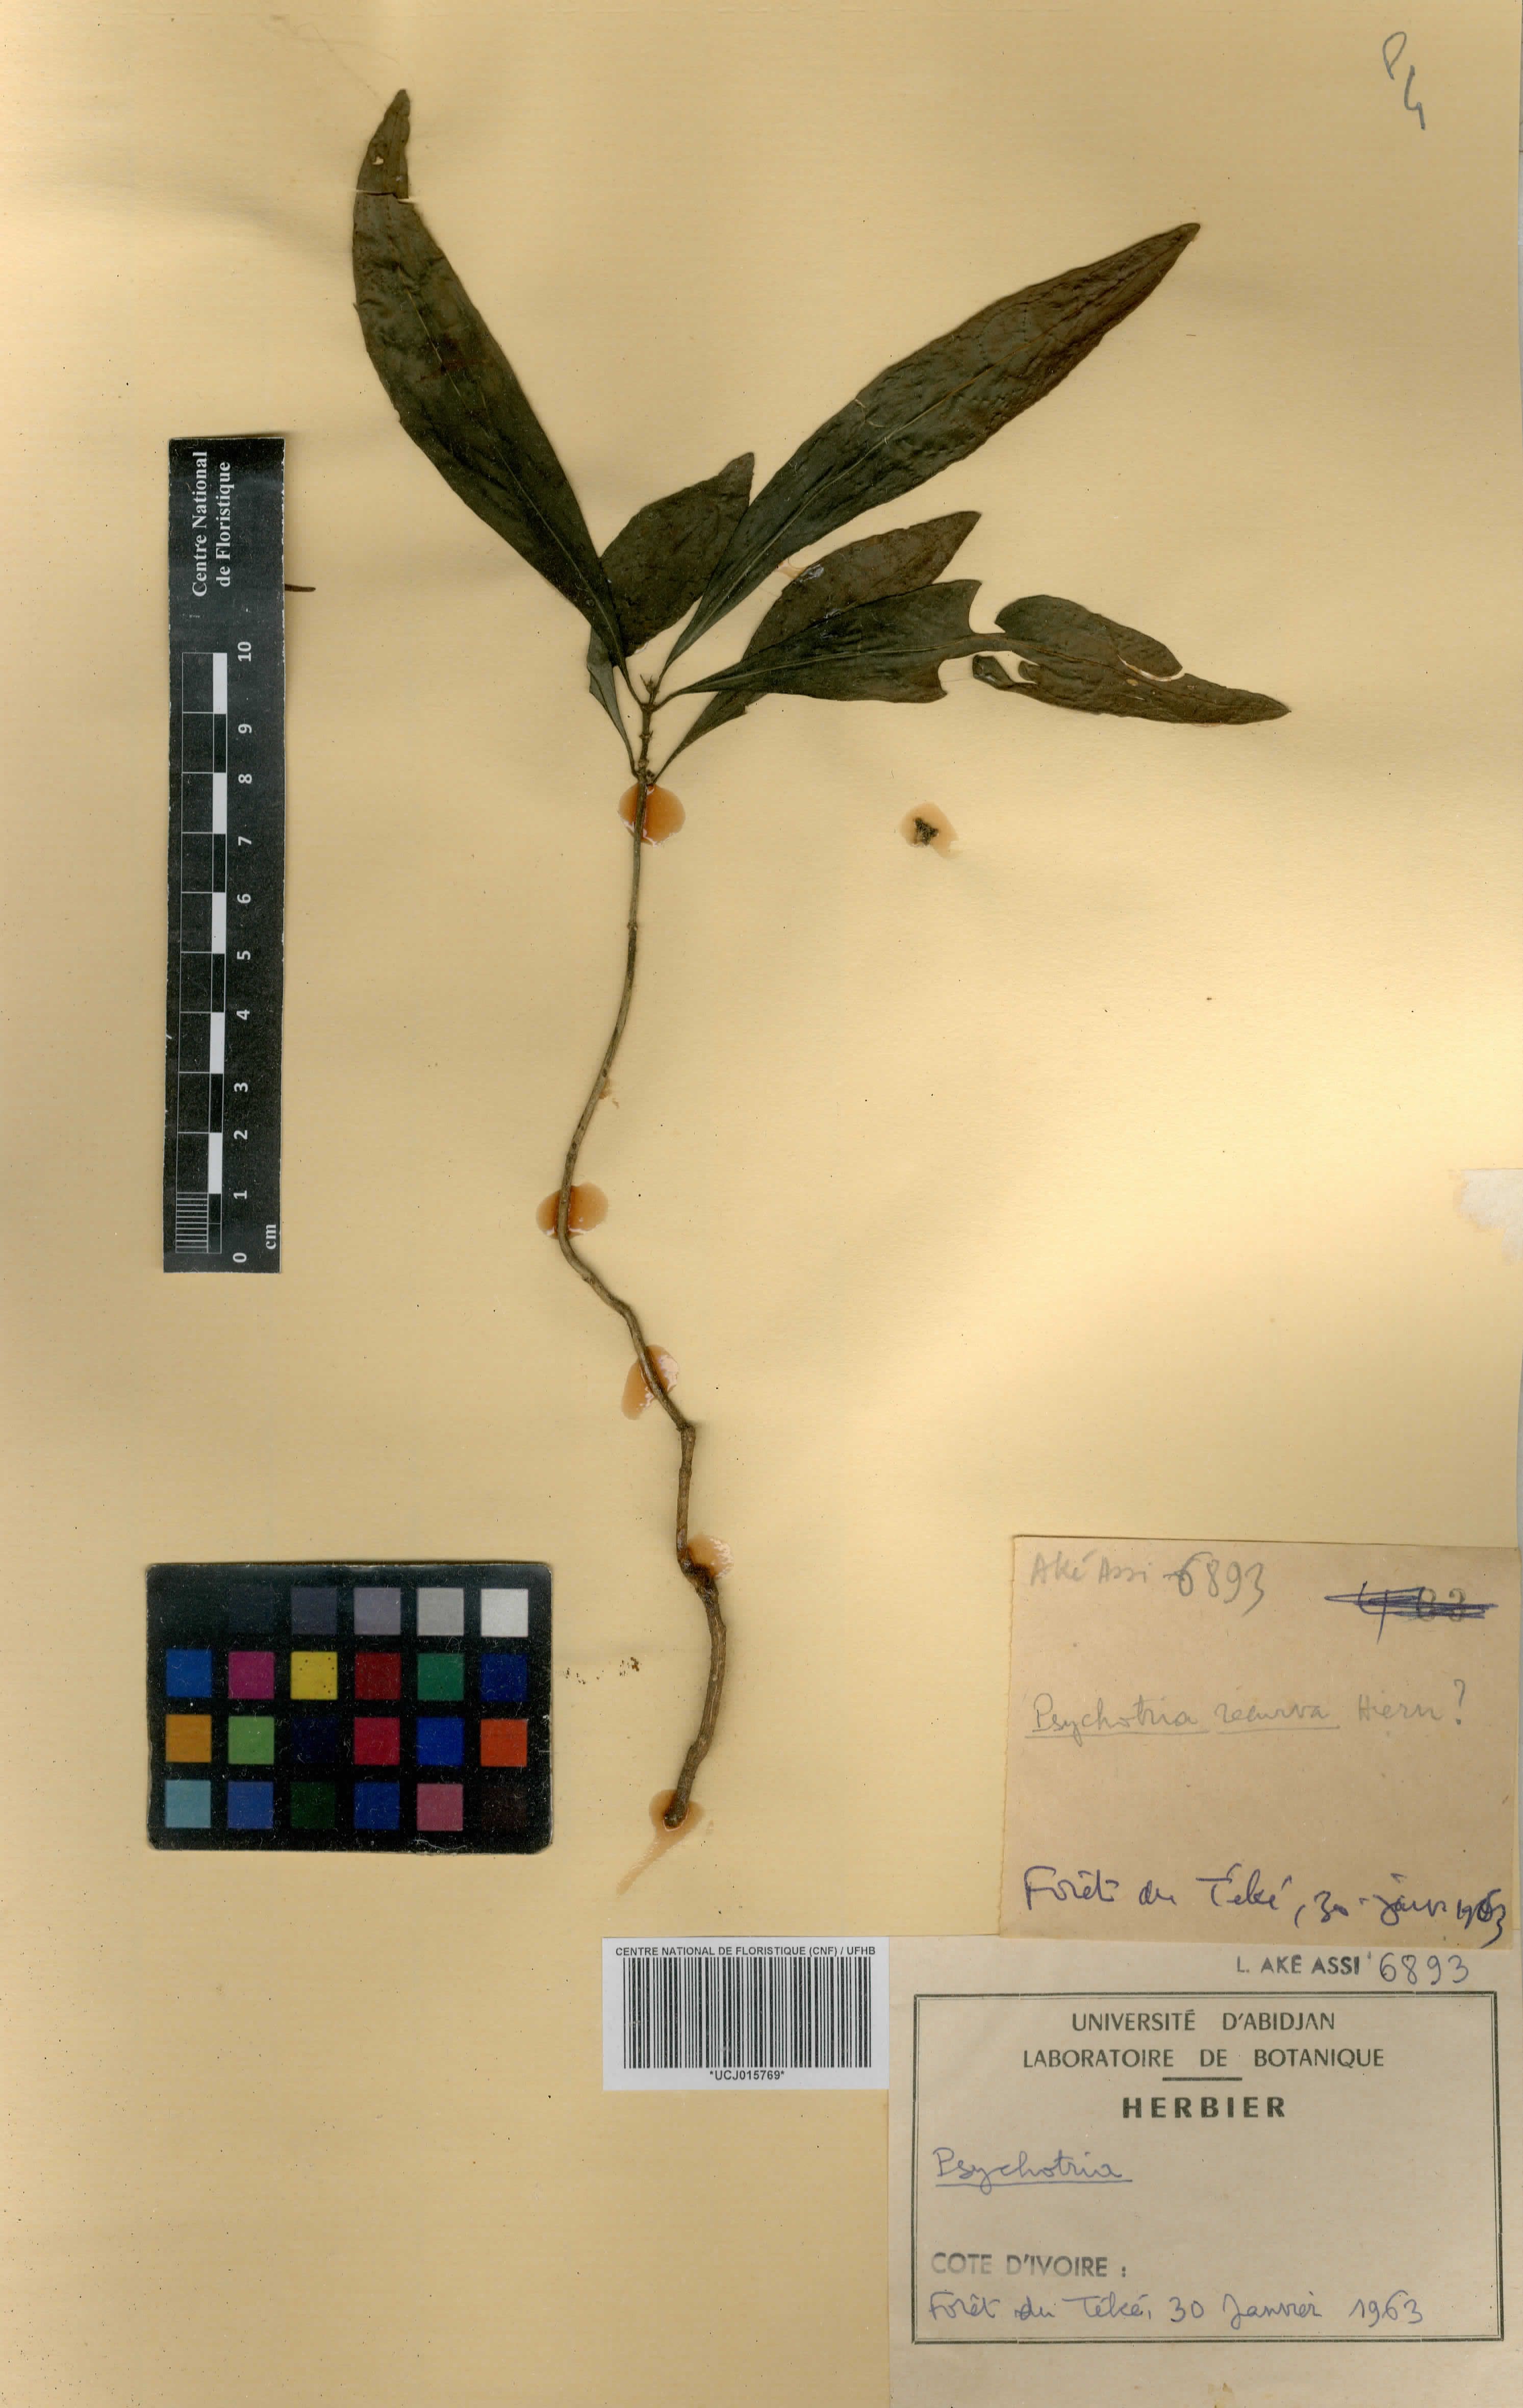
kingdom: Plantae
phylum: Tracheophyta
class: Magnoliopsida
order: Gentianales
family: Rubiaceae
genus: Psychotria
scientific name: Psychotria
